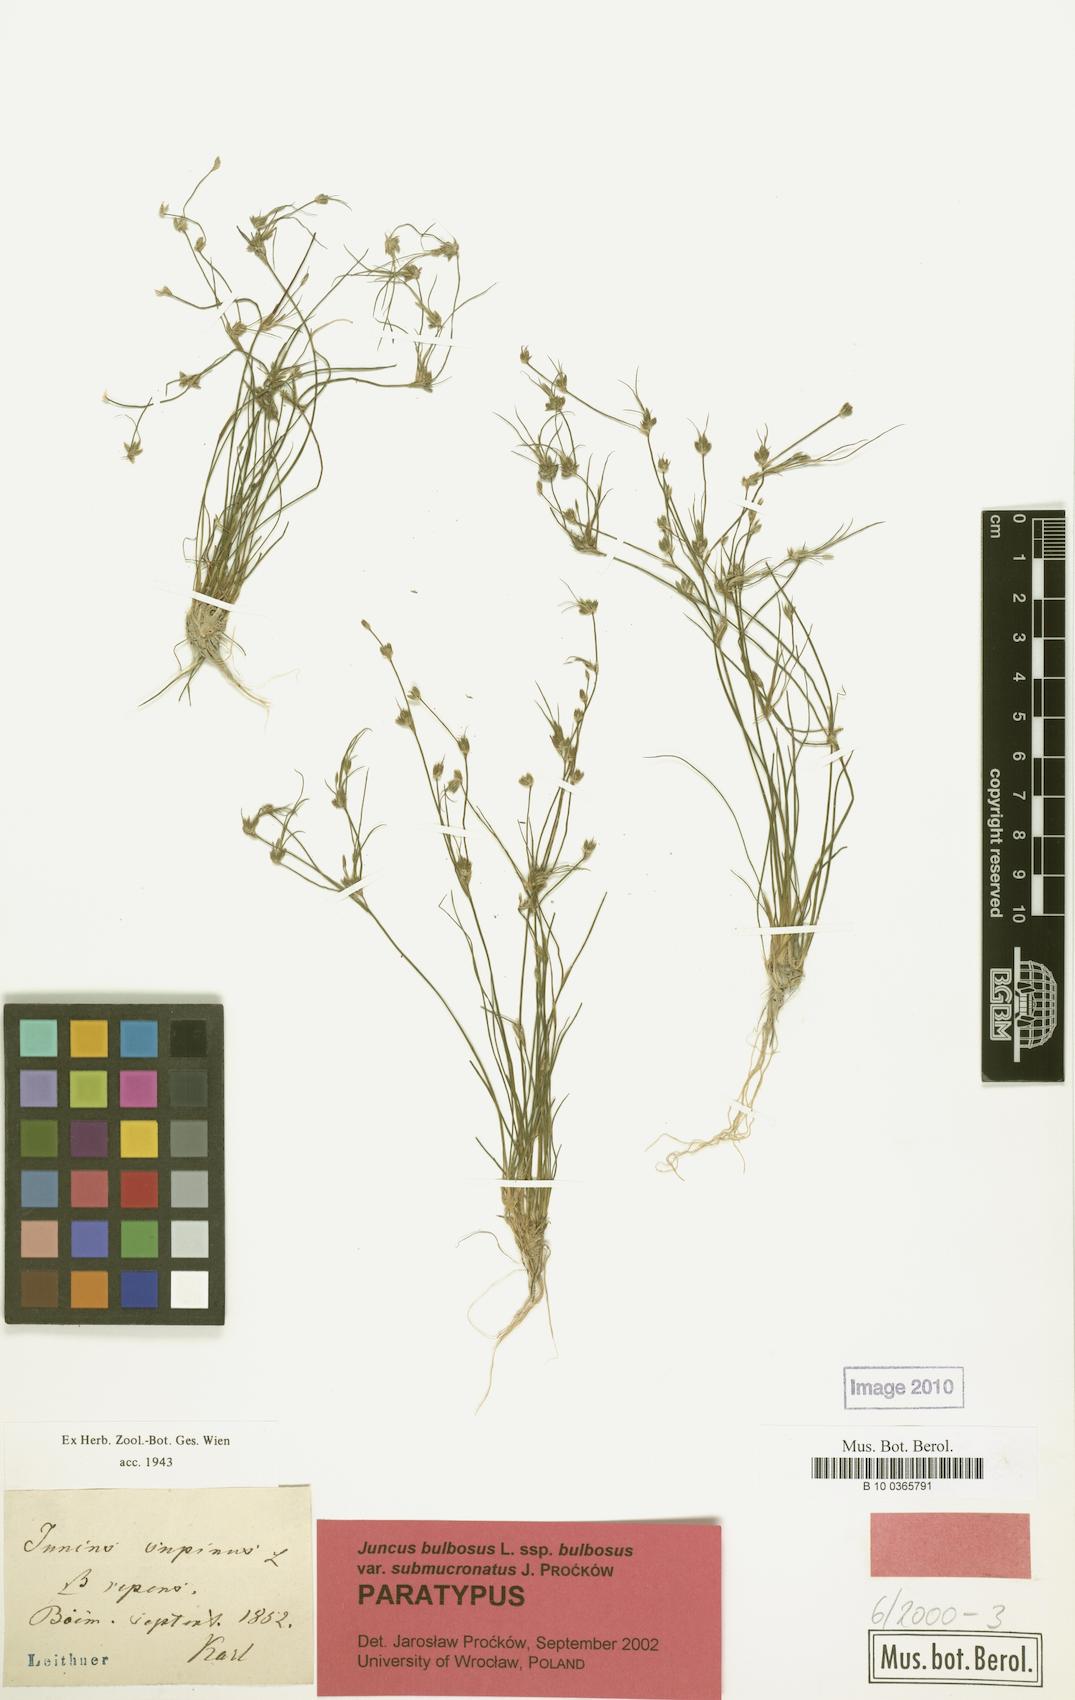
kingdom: Plantae
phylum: Tracheophyta
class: Liliopsida
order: Poales
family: Juncaceae
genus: Juncus
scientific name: Juncus bulbosus
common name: Bulbous rush
